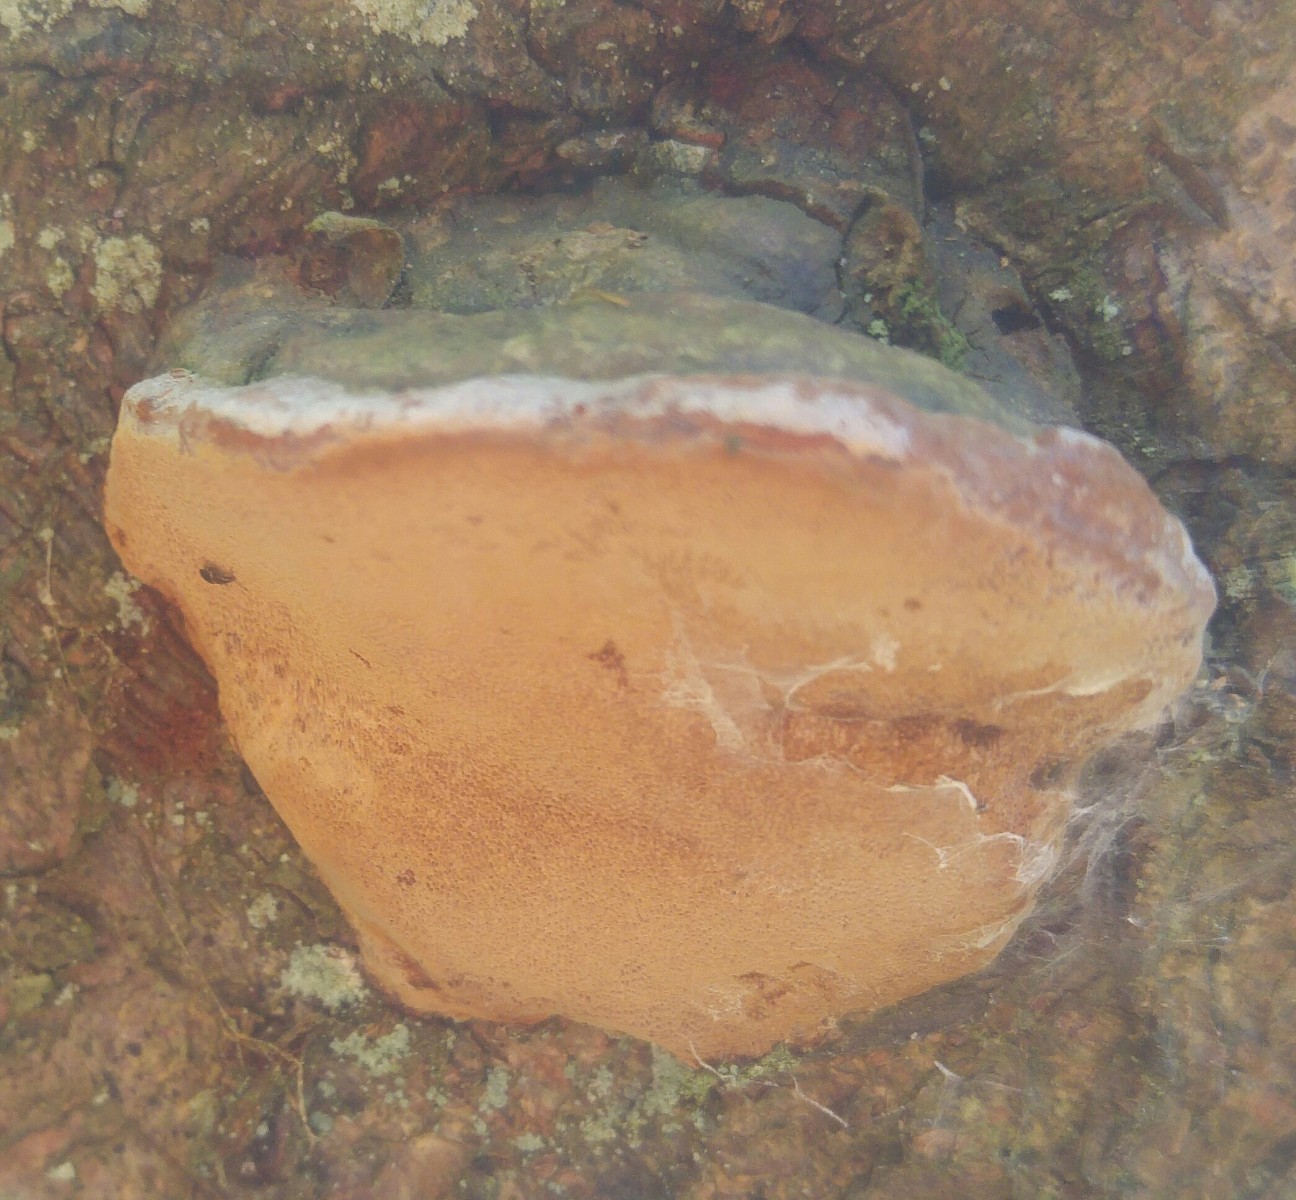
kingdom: Fungi
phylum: Basidiomycota
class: Agaricomycetes
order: Polyporales
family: Fomitopsidaceae
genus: Fomitopsis
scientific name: Fomitopsis pinicola
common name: randbæltet hovporesvamp
